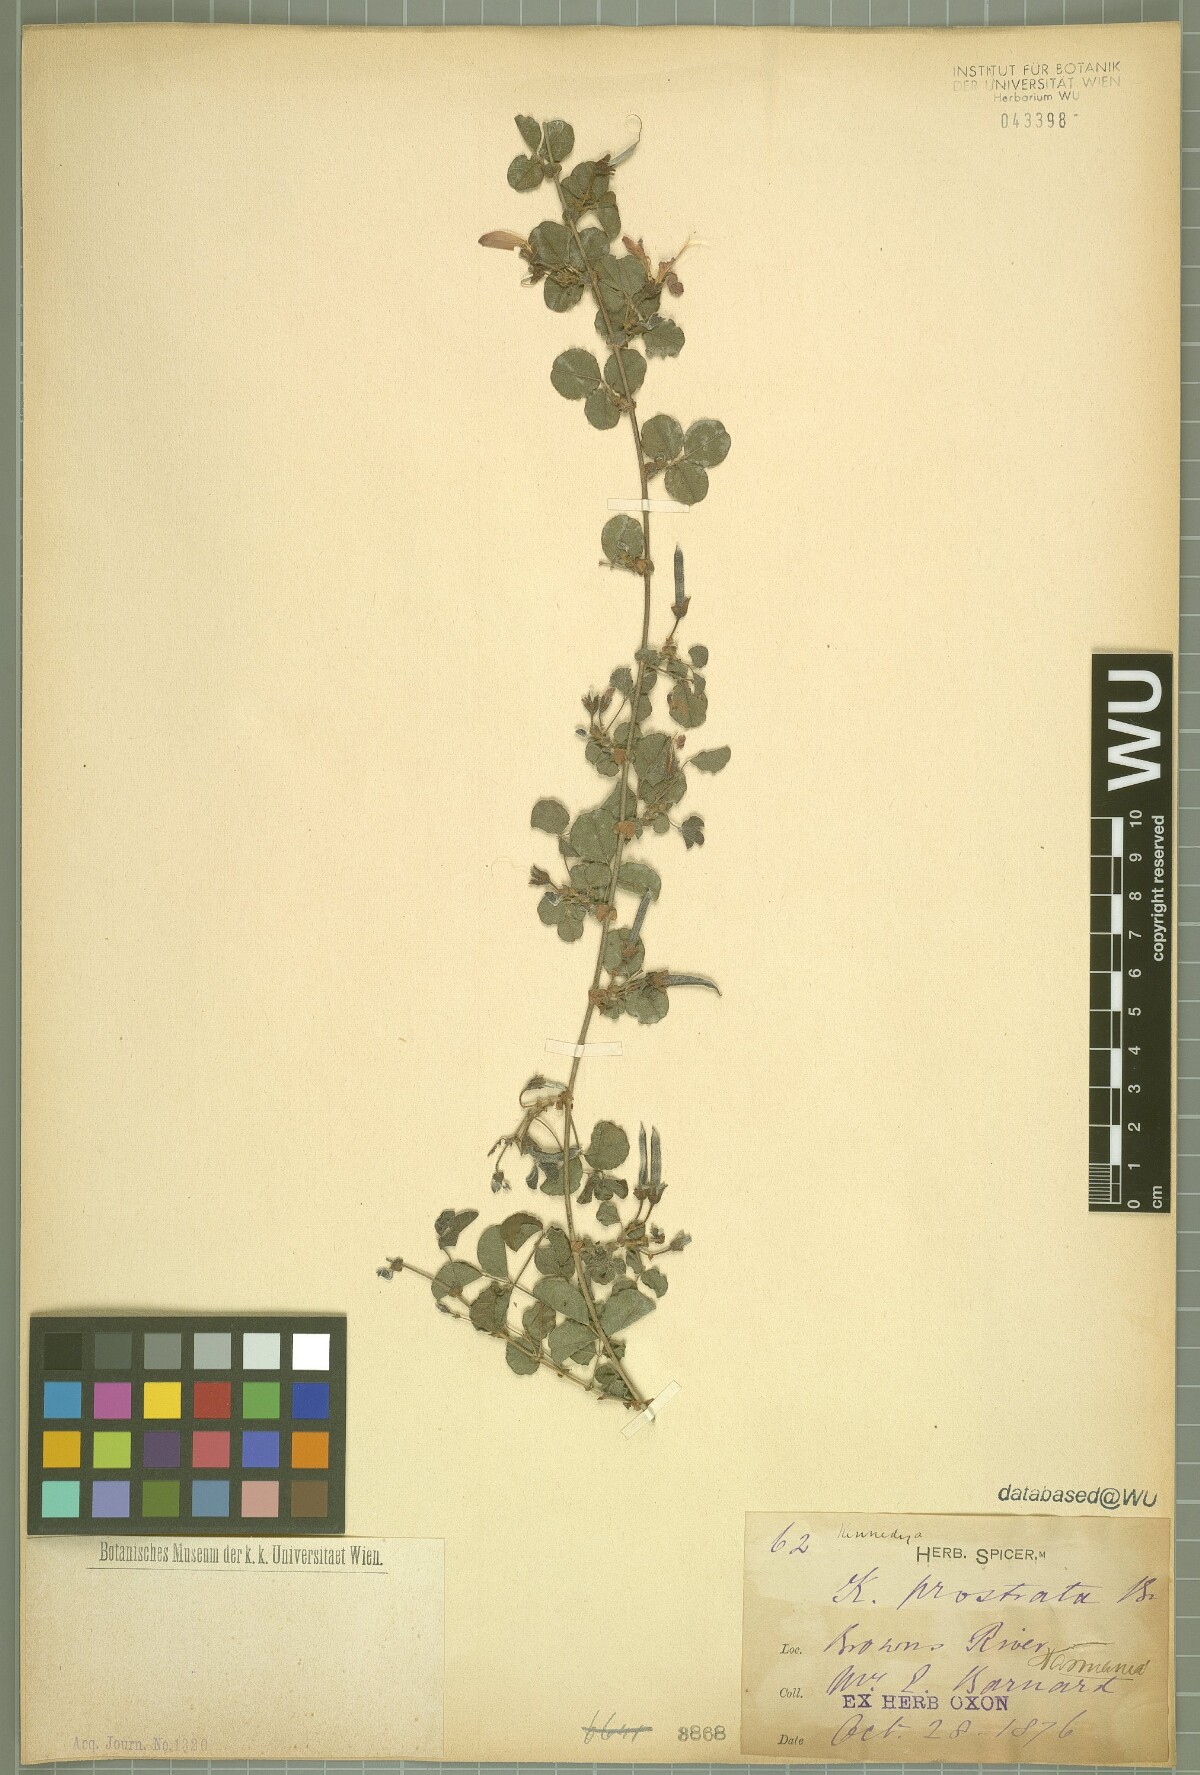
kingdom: Plantae
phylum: Tracheophyta
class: Magnoliopsida
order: Fabales
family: Fabaceae
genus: Kennedia
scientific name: Kennedia prostrata
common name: Running-postman
